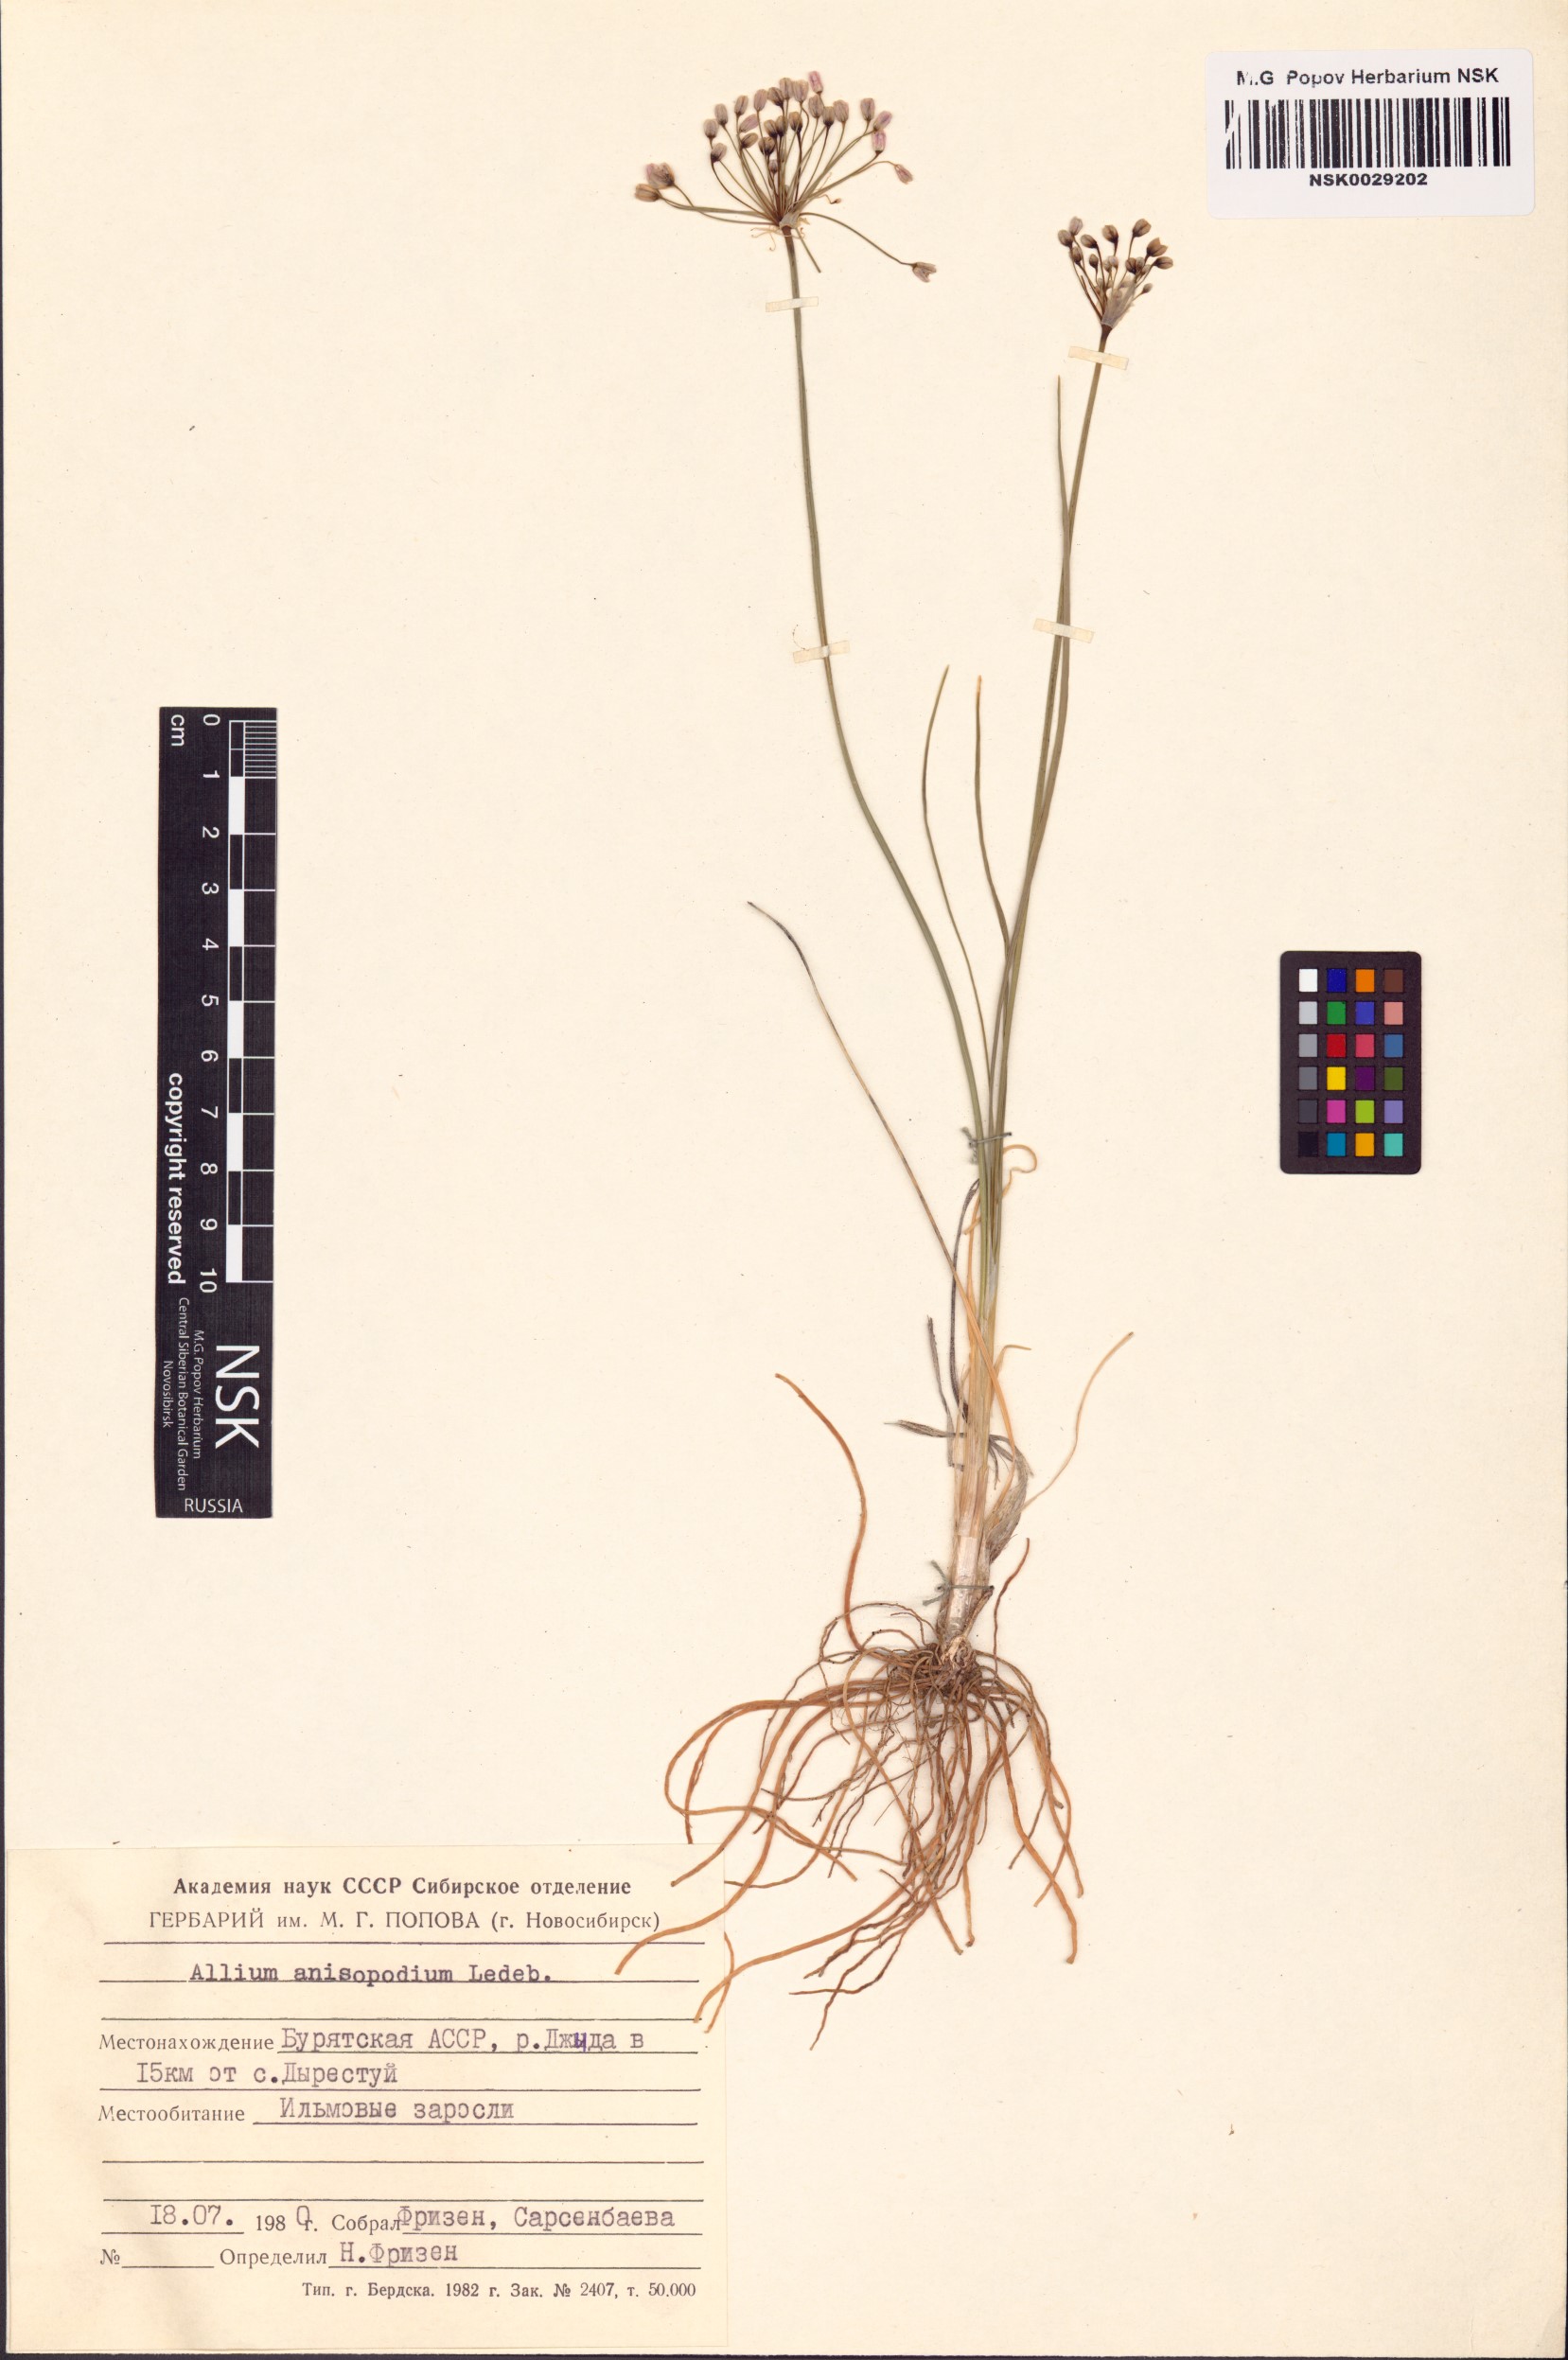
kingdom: Plantae
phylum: Tracheophyta
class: Liliopsida
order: Asparagales
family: Amaryllidaceae
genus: Allium
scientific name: Allium anisopodium
